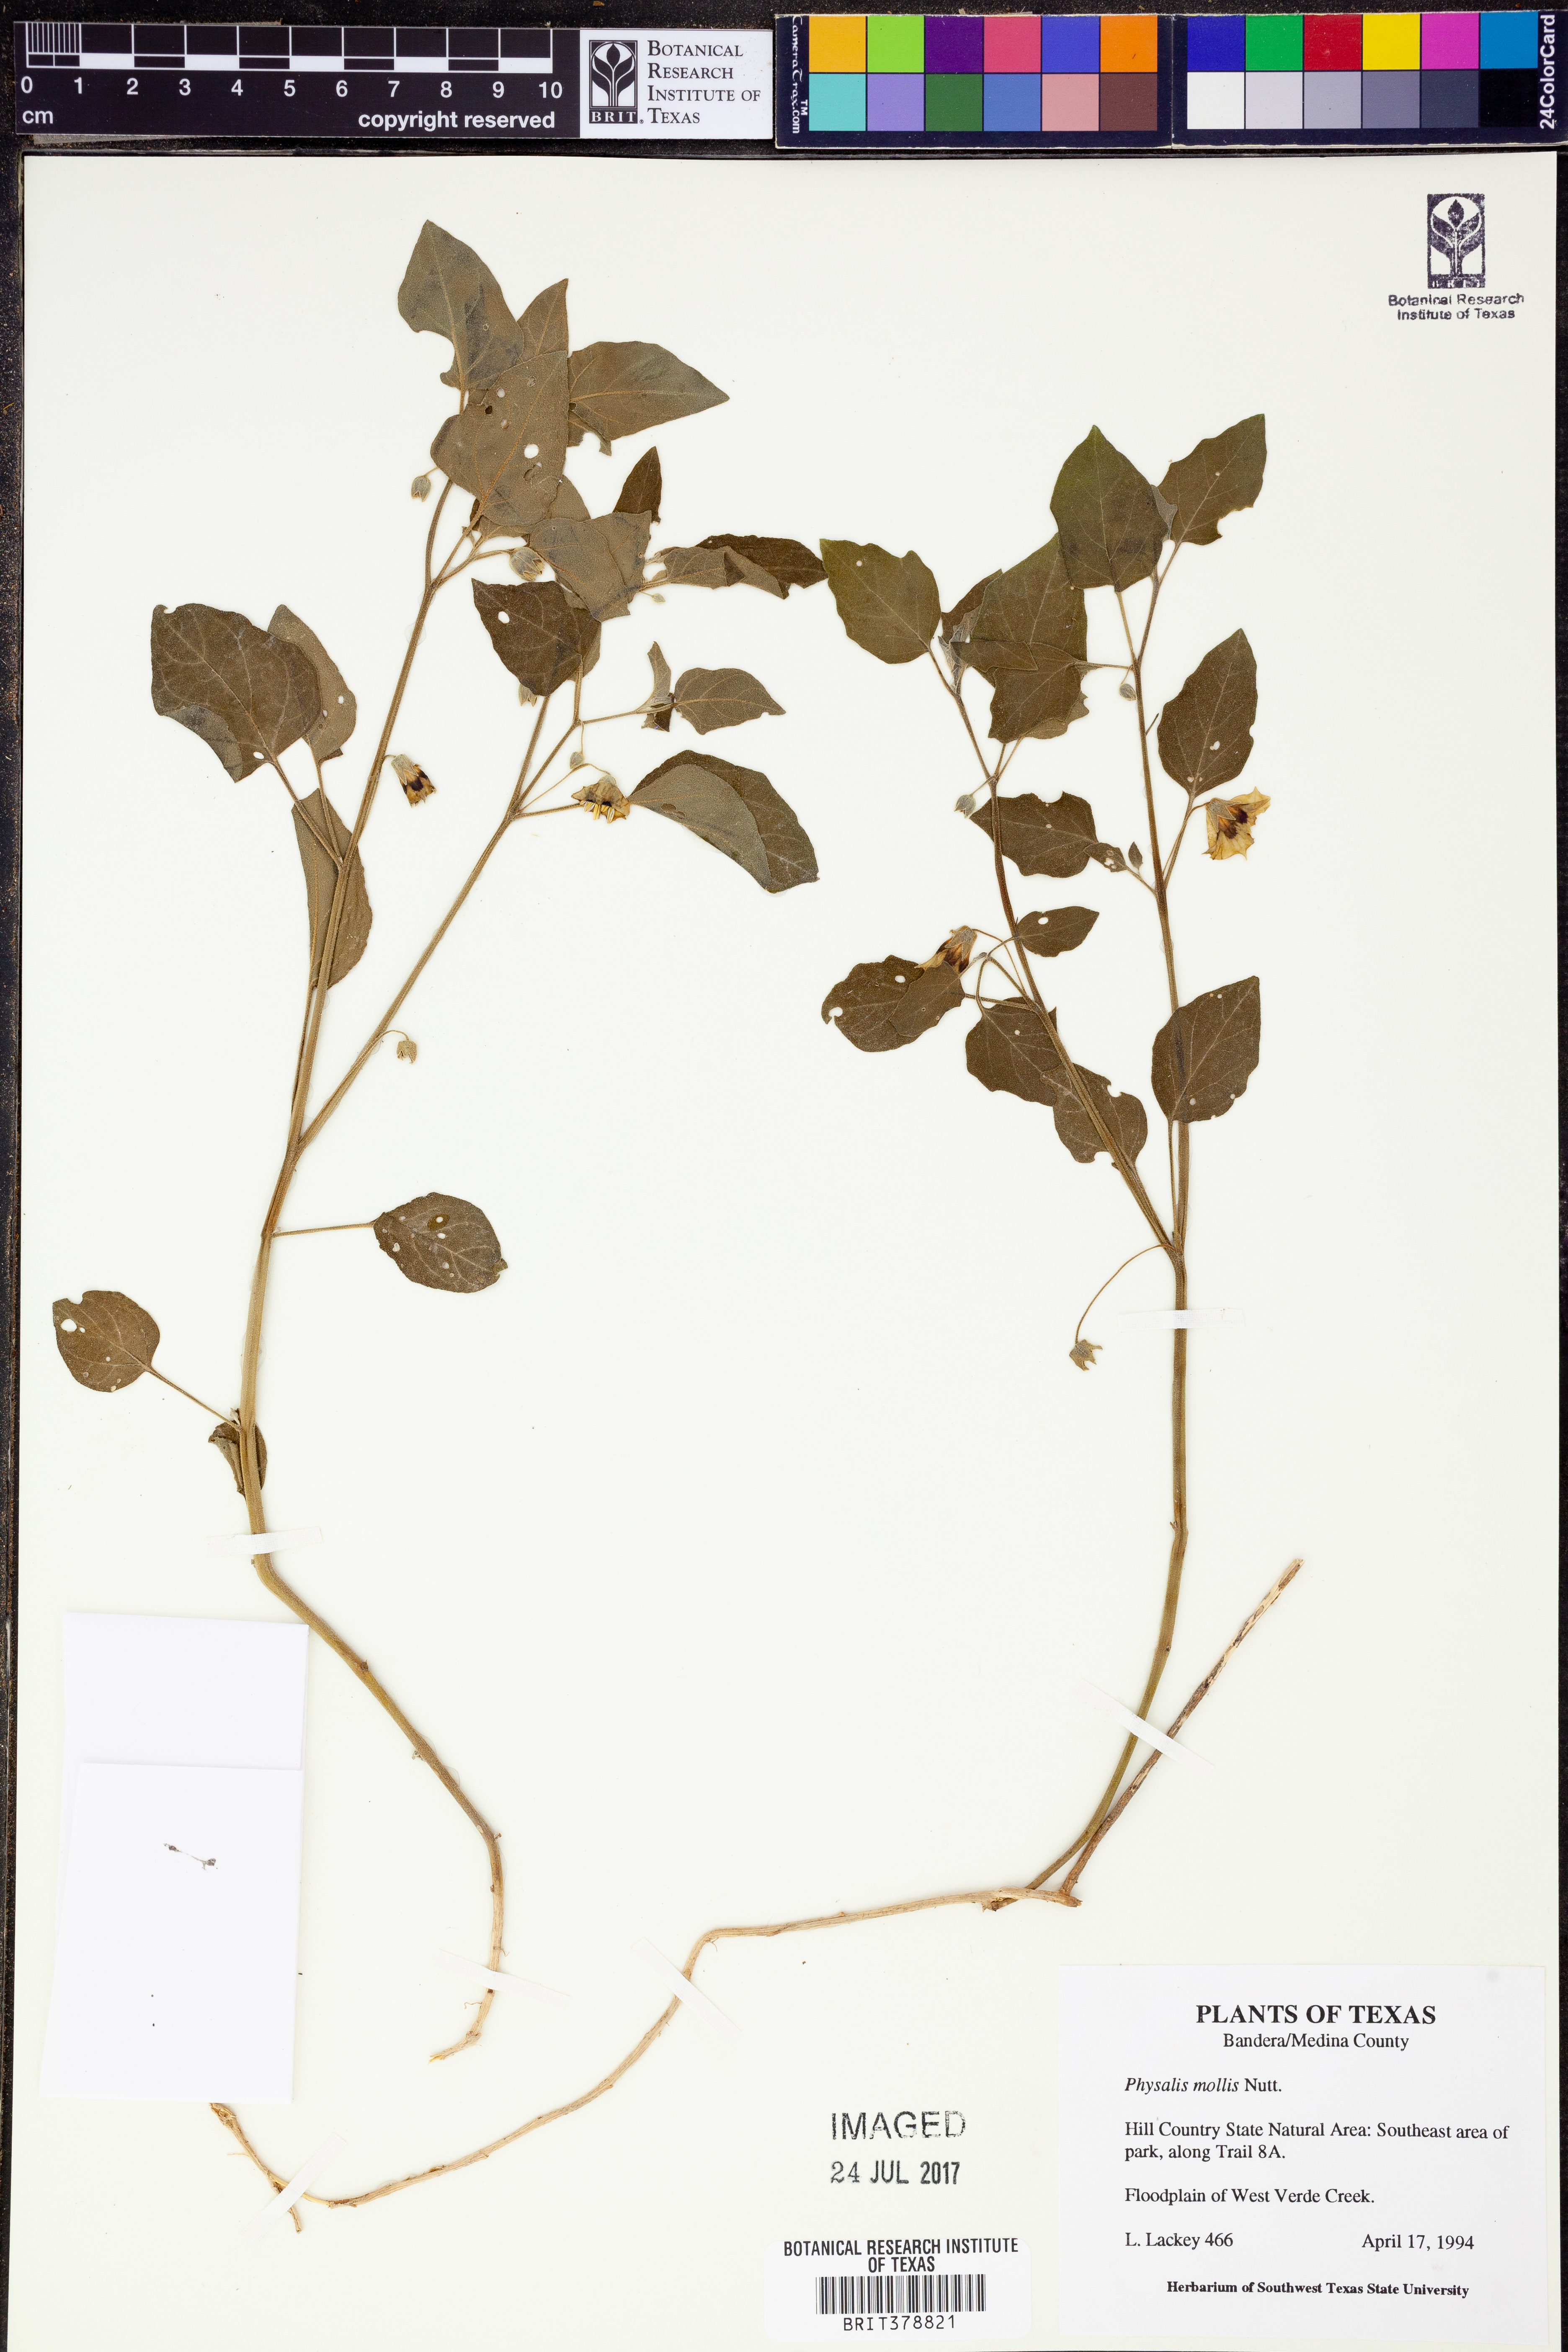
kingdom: Plantae
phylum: Tracheophyta
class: Magnoliopsida
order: Solanales
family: Solanaceae
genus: Physalis
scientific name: Physalis mollis
